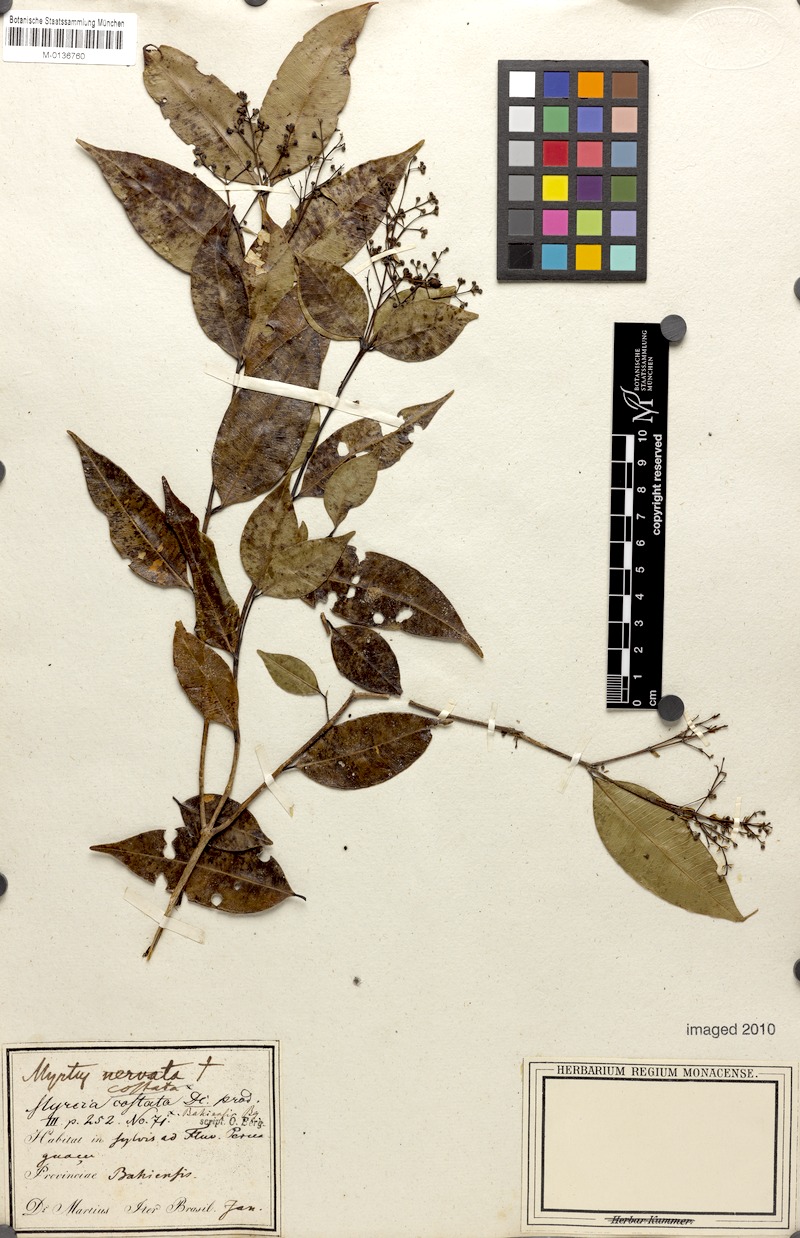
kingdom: Plantae
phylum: Tracheophyta
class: Magnoliopsida
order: Myrtales
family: Myrtaceae
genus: Myrcia
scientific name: Myrcia splendens
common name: Surinam cherry
